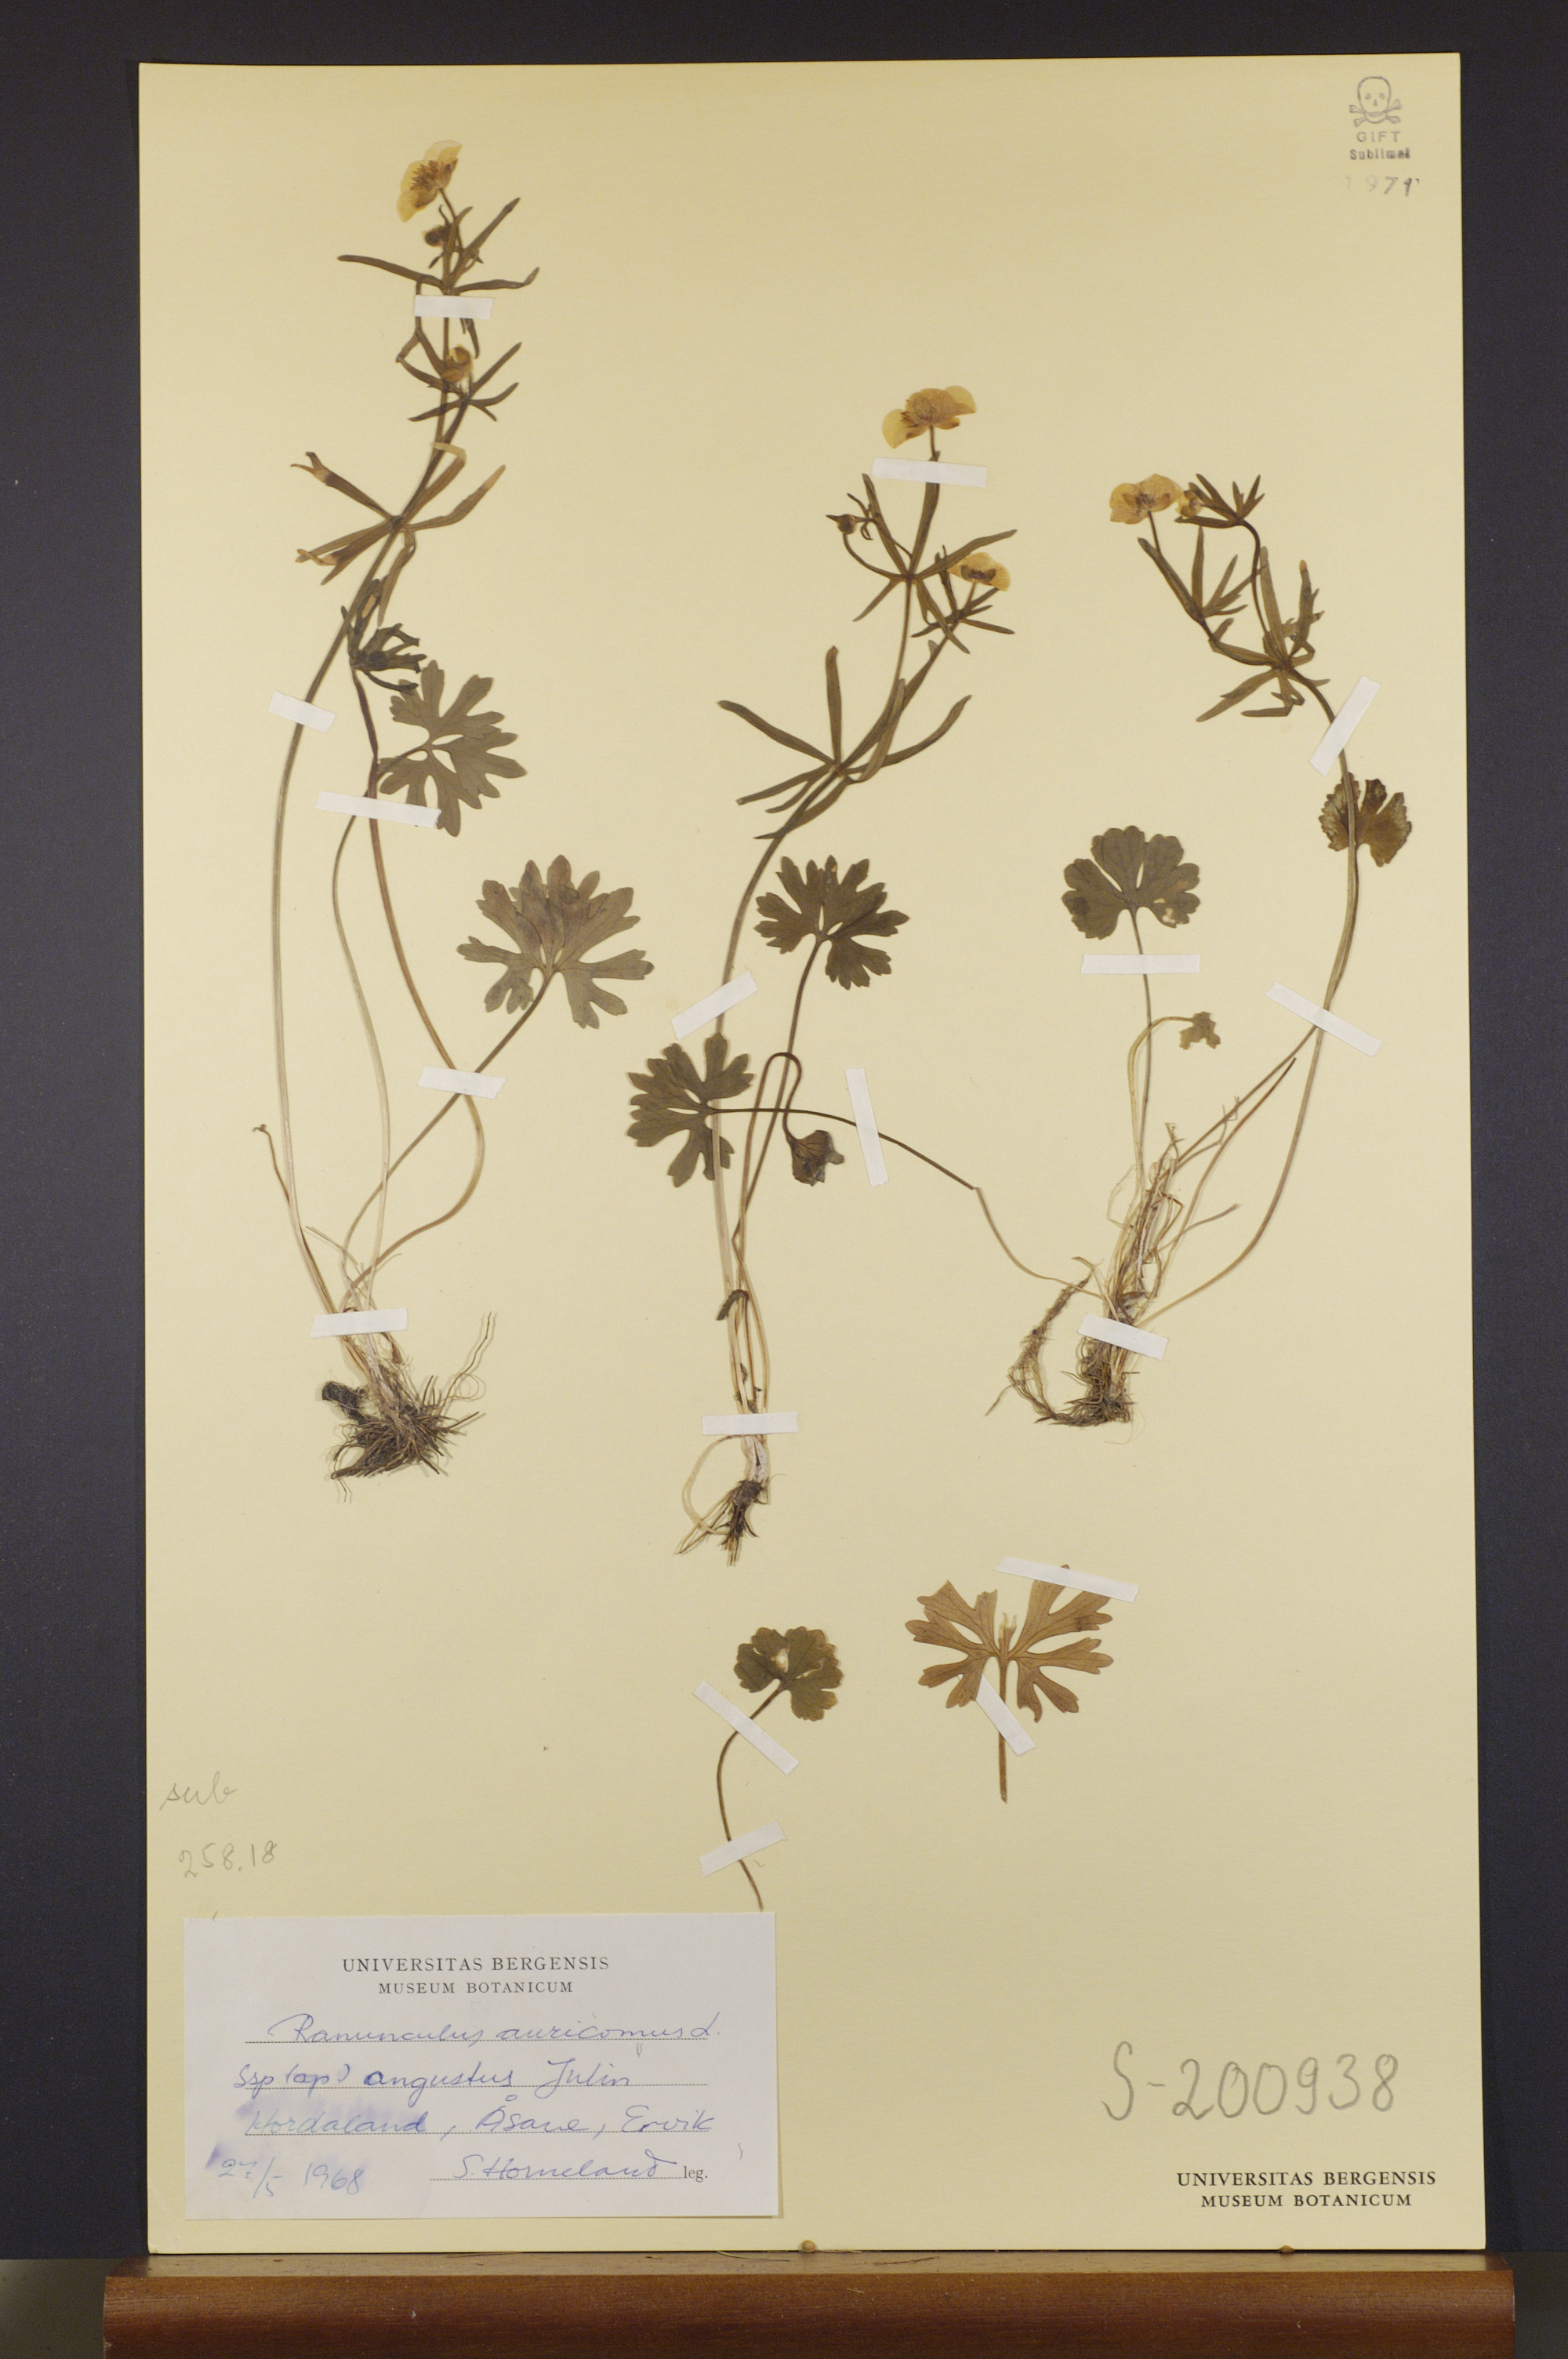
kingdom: Plantae
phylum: Tracheophyta
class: Magnoliopsida
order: Ranunculales
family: Ranunculaceae
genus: Ranunculus
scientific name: Ranunculus angustus
